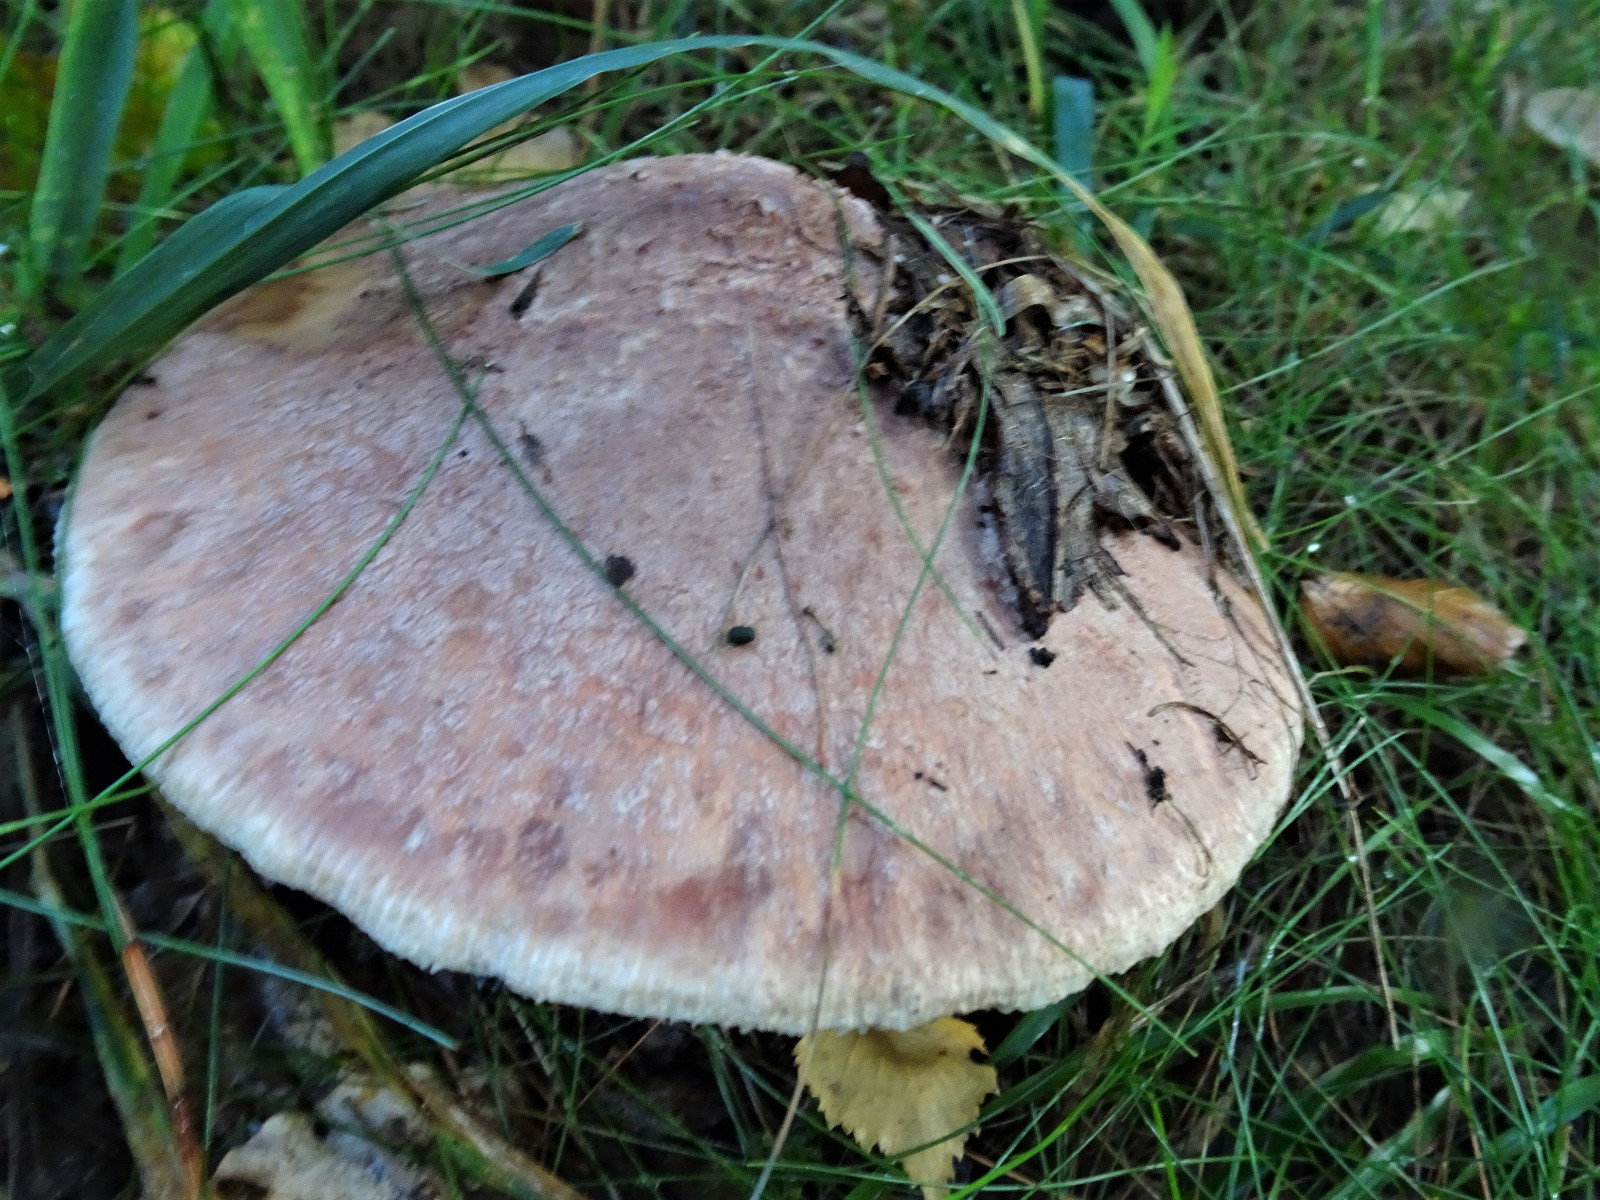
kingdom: Fungi
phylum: Basidiomycota
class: Agaricomycetes
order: Agaricales
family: Amanitaceae
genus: Amanita
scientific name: Amanita rubescens
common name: rødmende fluesvamp
